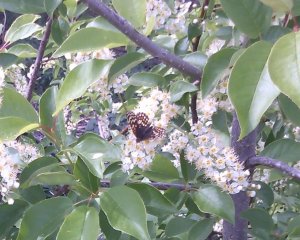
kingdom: Animalia
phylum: Arthropoda
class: Insecta
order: Lepidoptera
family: Nymphalidae
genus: Chlosyne
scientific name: Chlosyne acastus
